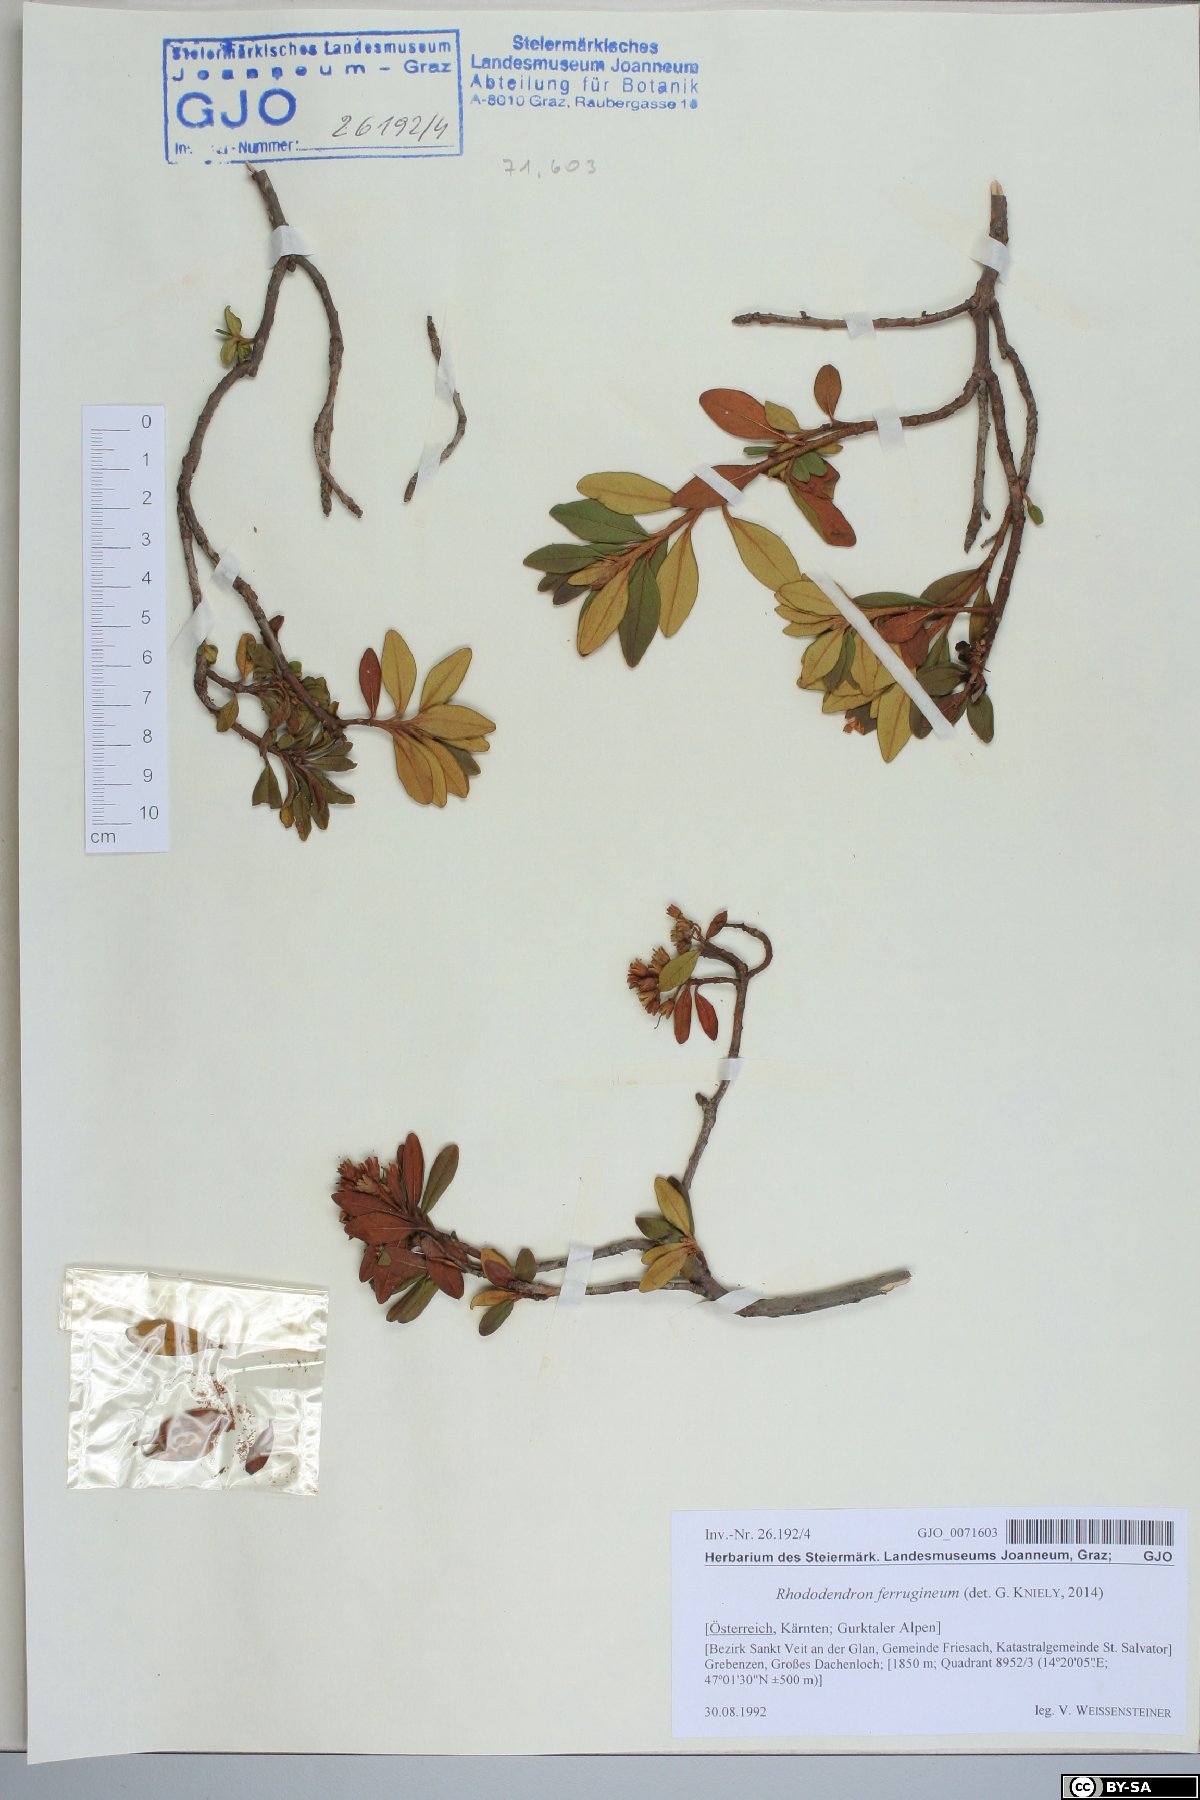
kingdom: Plantae
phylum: Tracheophyta
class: Magnoliopsida
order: Ericales
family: Ericaceae
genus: Rhododendron
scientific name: Rhododendron ferrugineum
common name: Alpenrose
